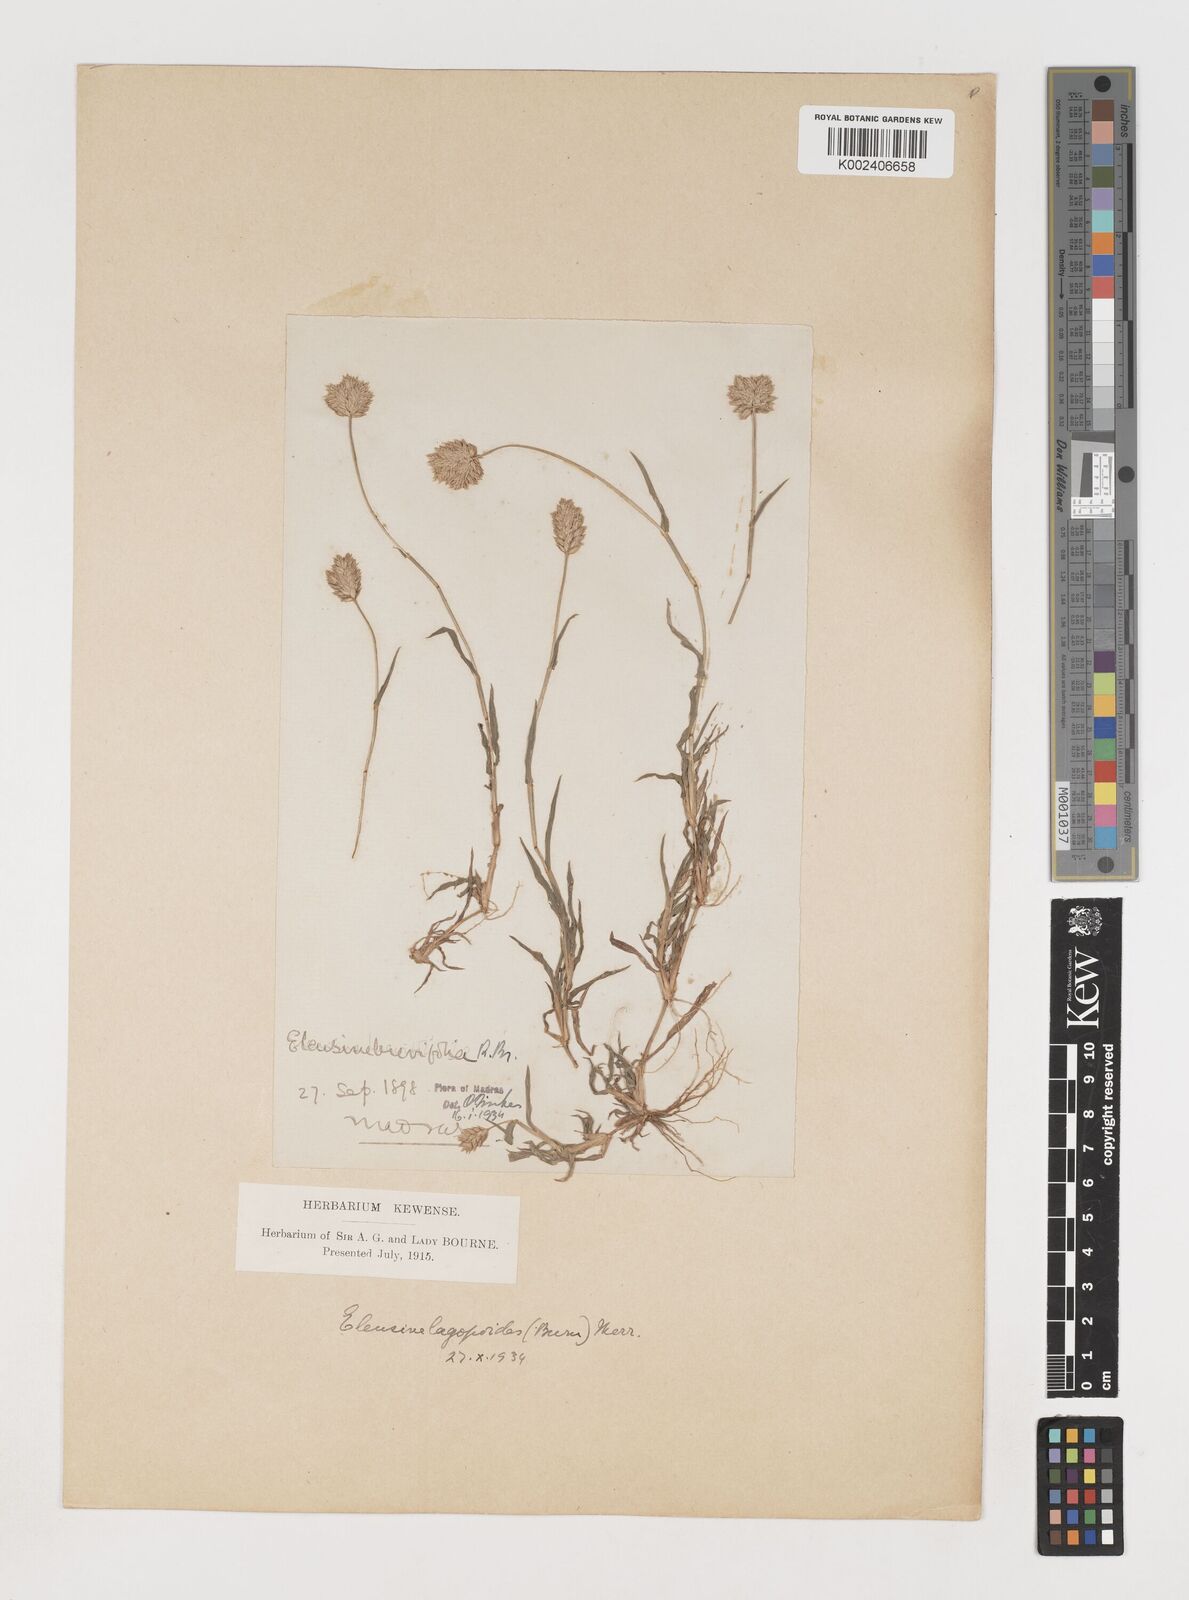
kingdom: Plantae
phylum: Tracheophyta
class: Liliopsida
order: Poales
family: Poaceae
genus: Coelachyrum
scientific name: Coelachyrum lagopoides
